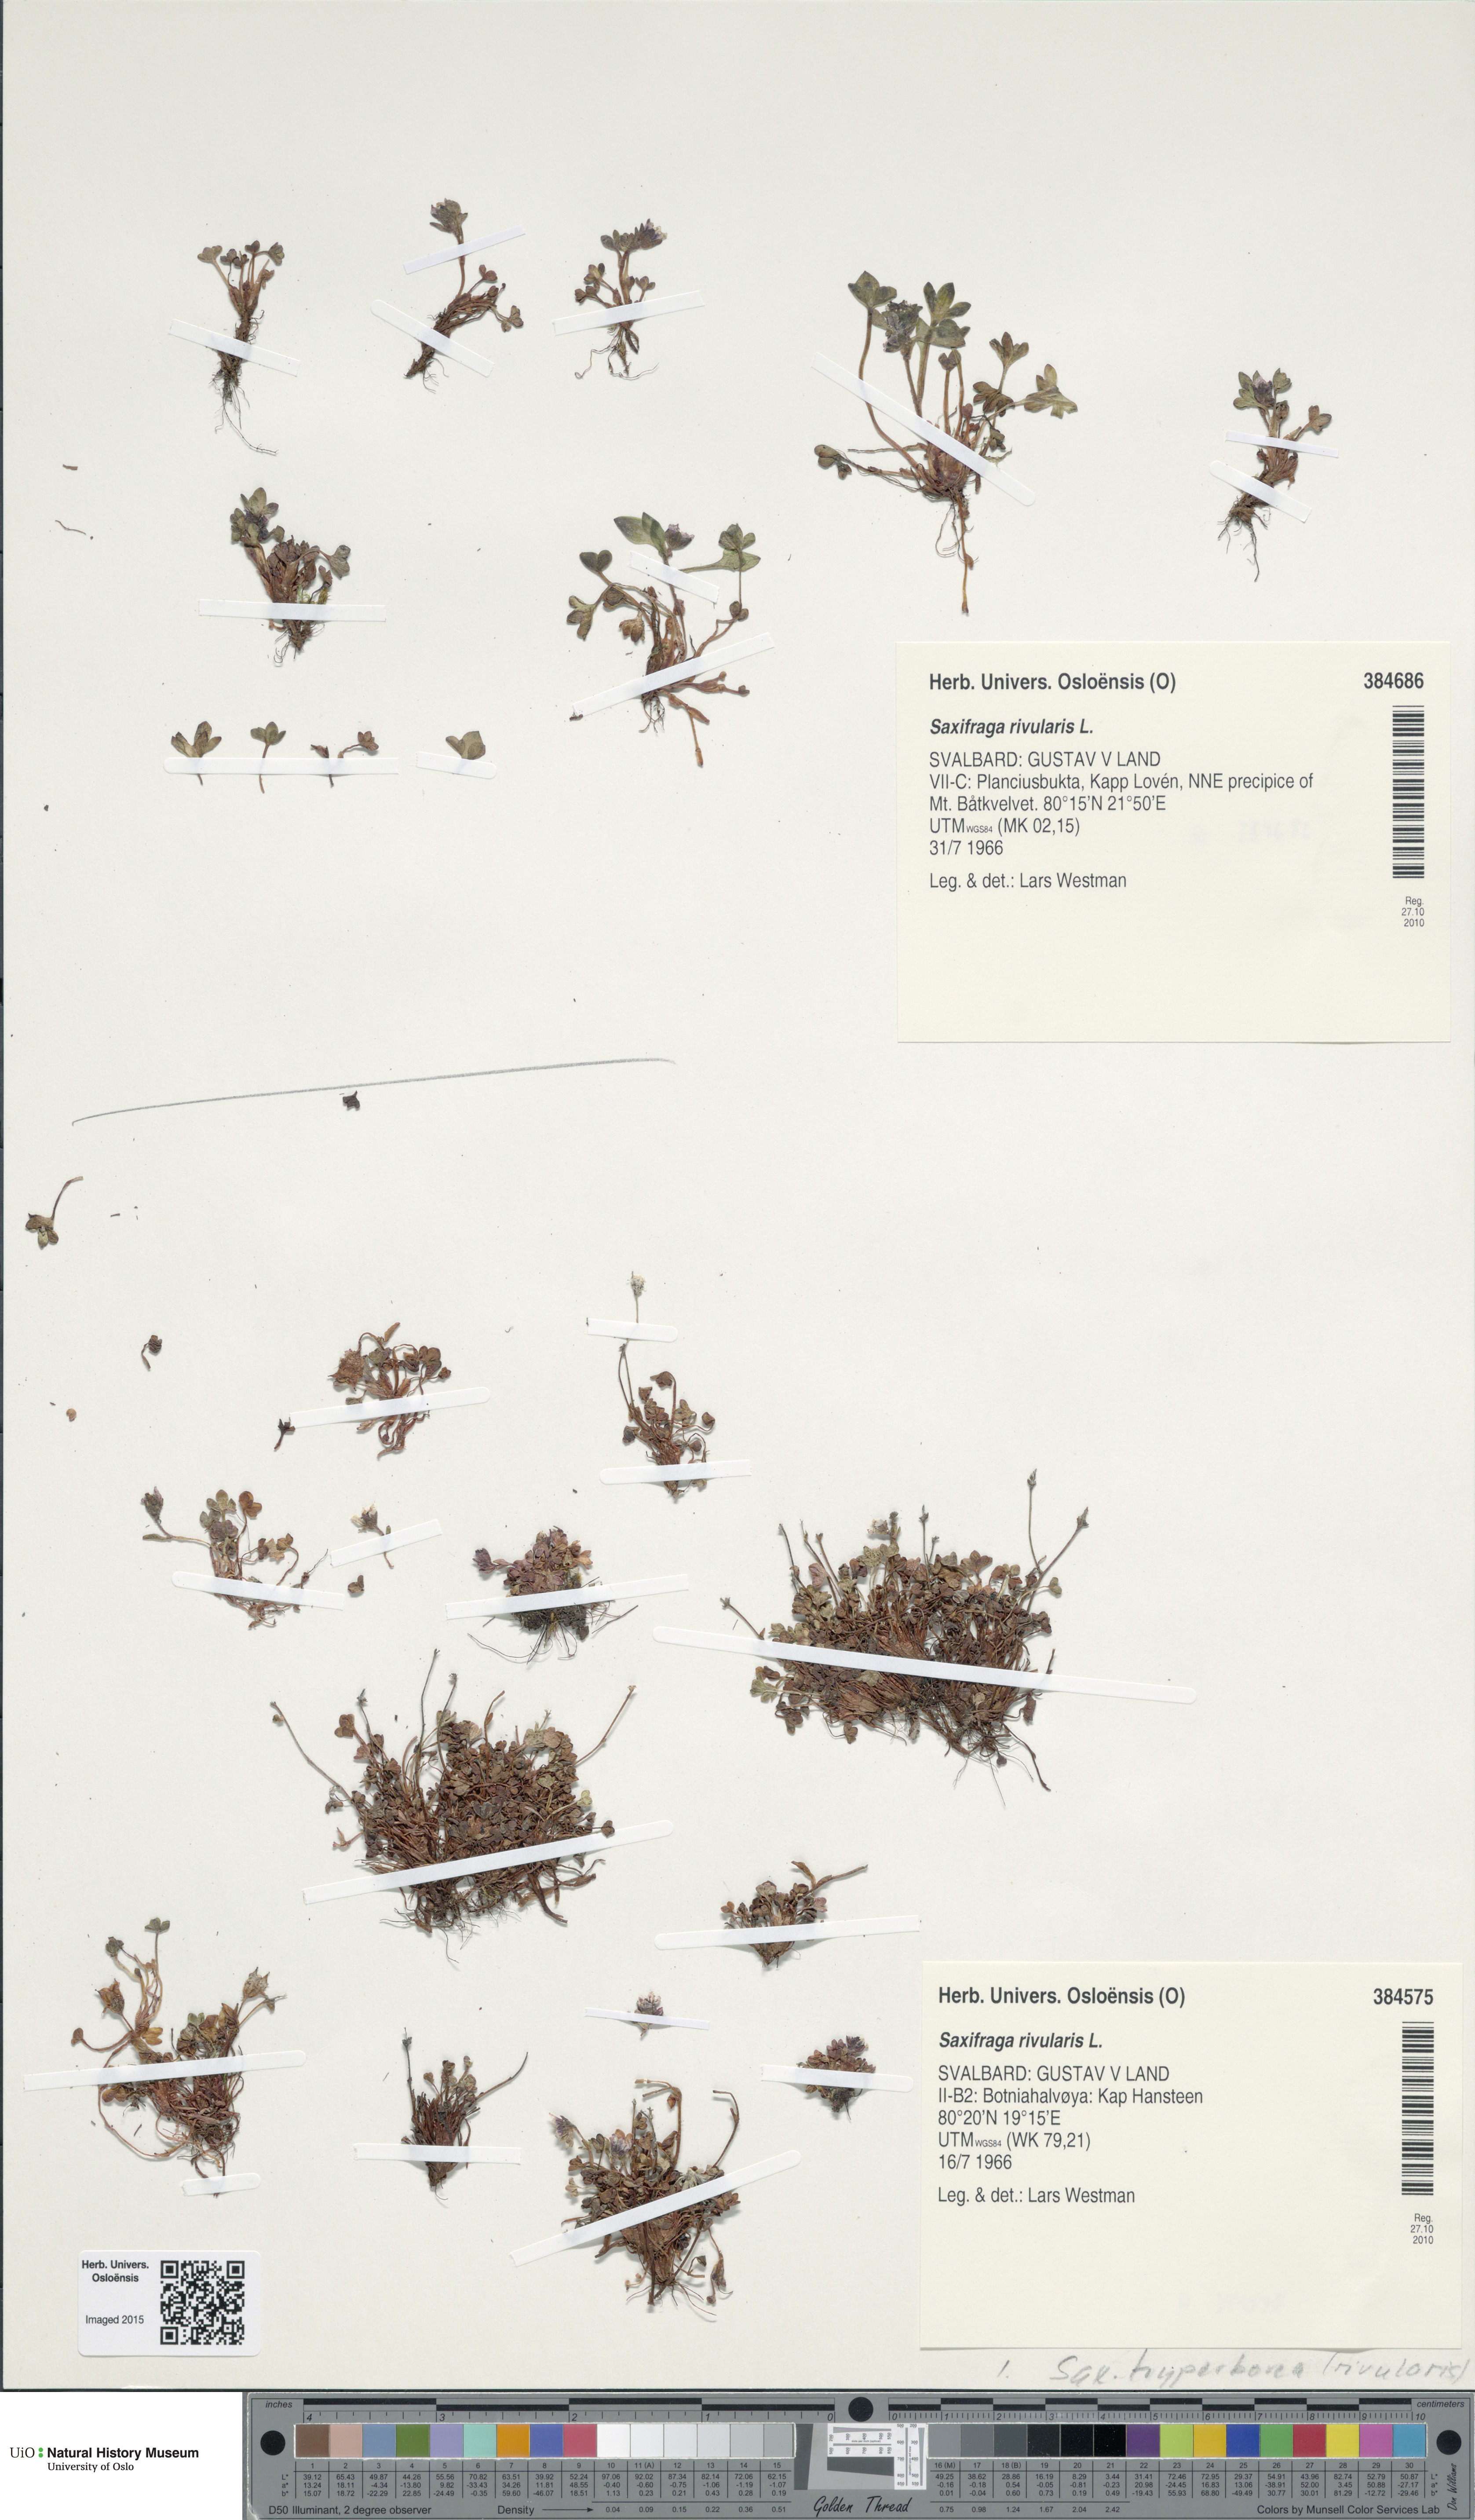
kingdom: Plantae
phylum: Tracheophyta
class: Magnoliopsida
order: Saxifragales
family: Saxifragaceae
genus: Saxifraga
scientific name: Saxifraga rivularis
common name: Highland saxifrage
